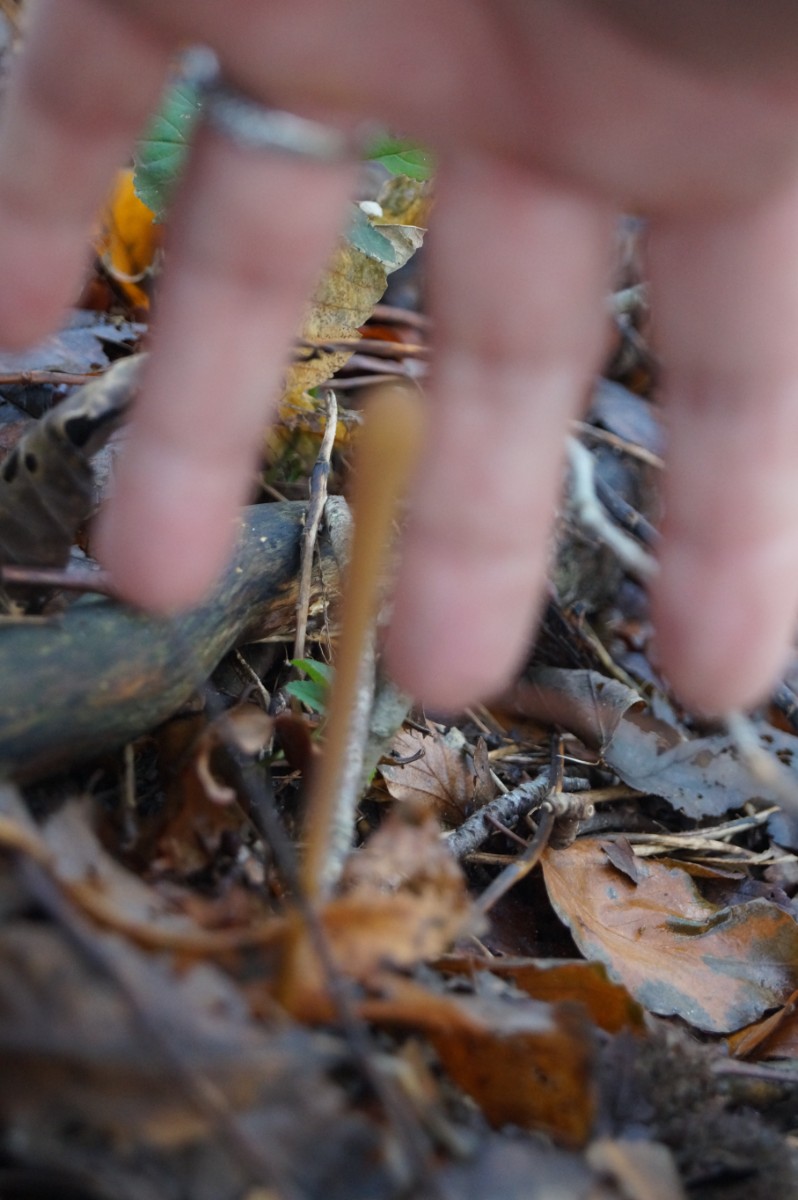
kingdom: Fungi
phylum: Basidiomycota
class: Agaricomycetes
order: Agaricales
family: Typhulaceae
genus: Typhula
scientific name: Typhula fistulosa
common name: pibet rørkølle
